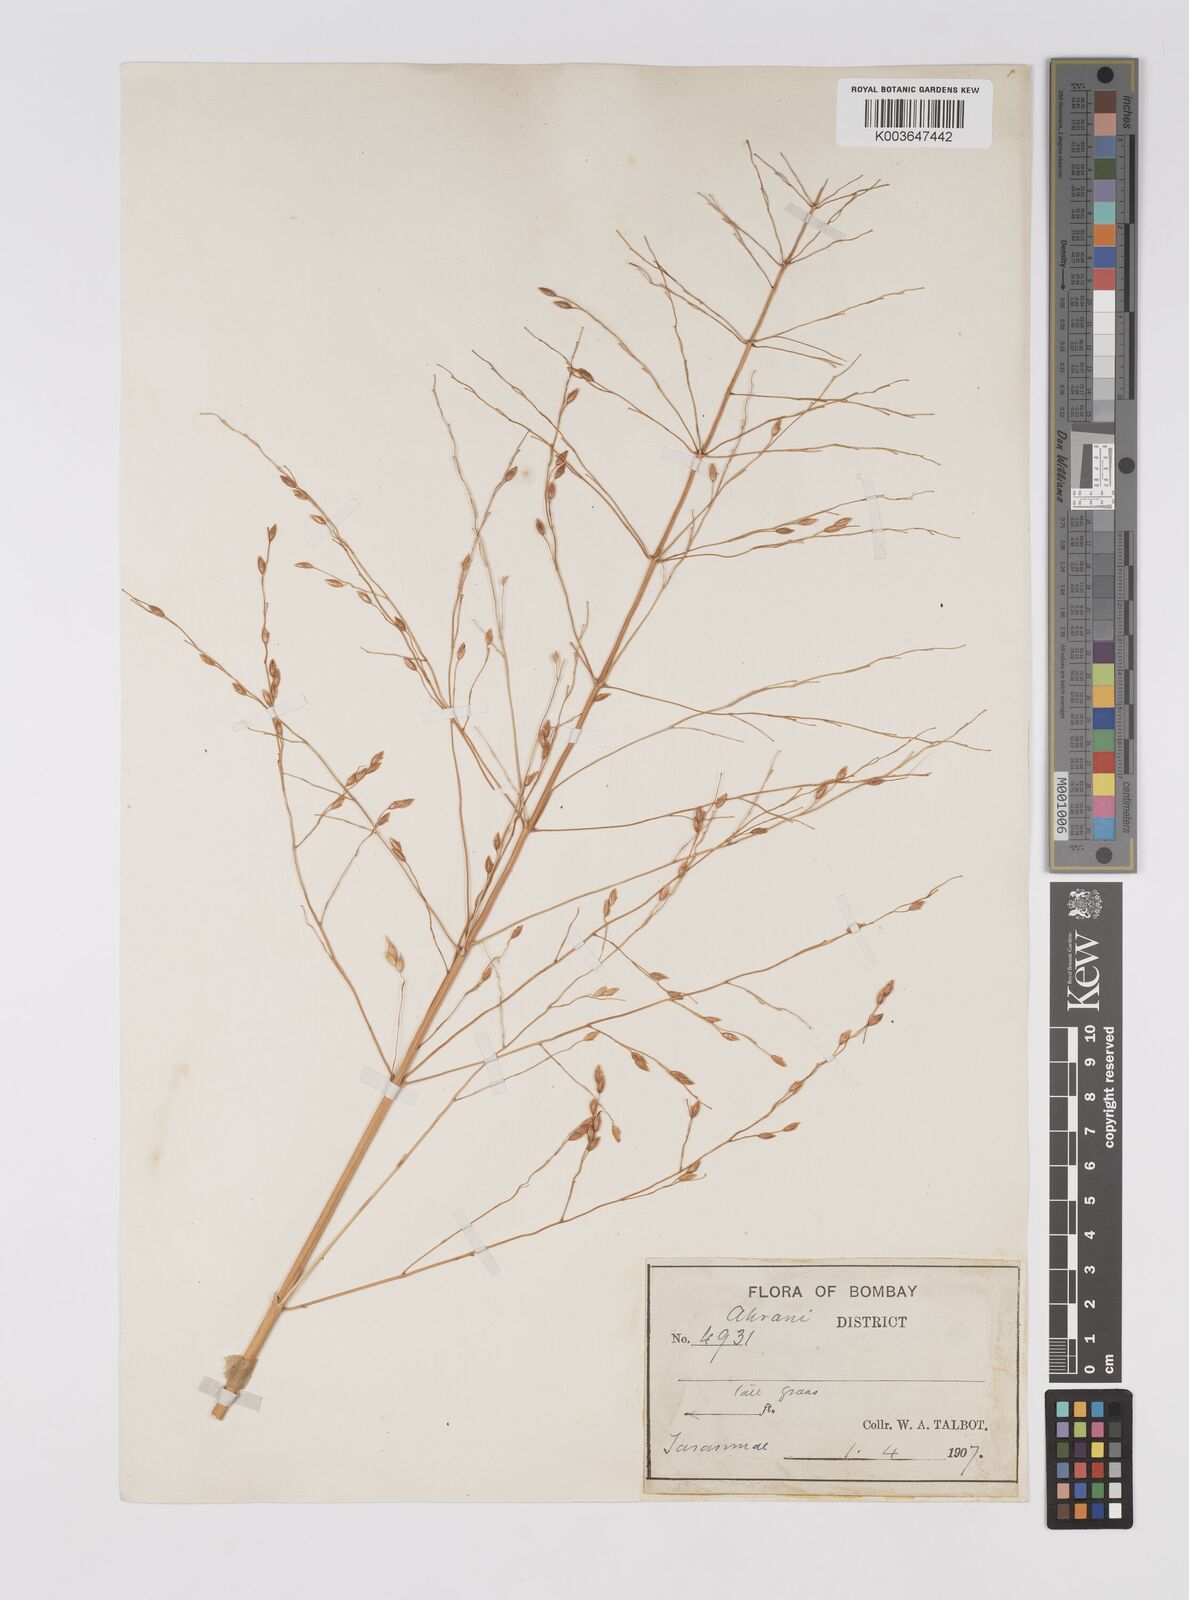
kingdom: Plantae
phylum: Tracheophyta
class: Liliopsida
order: Poales
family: Poaceae
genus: Sorghum
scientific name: Sorghum
